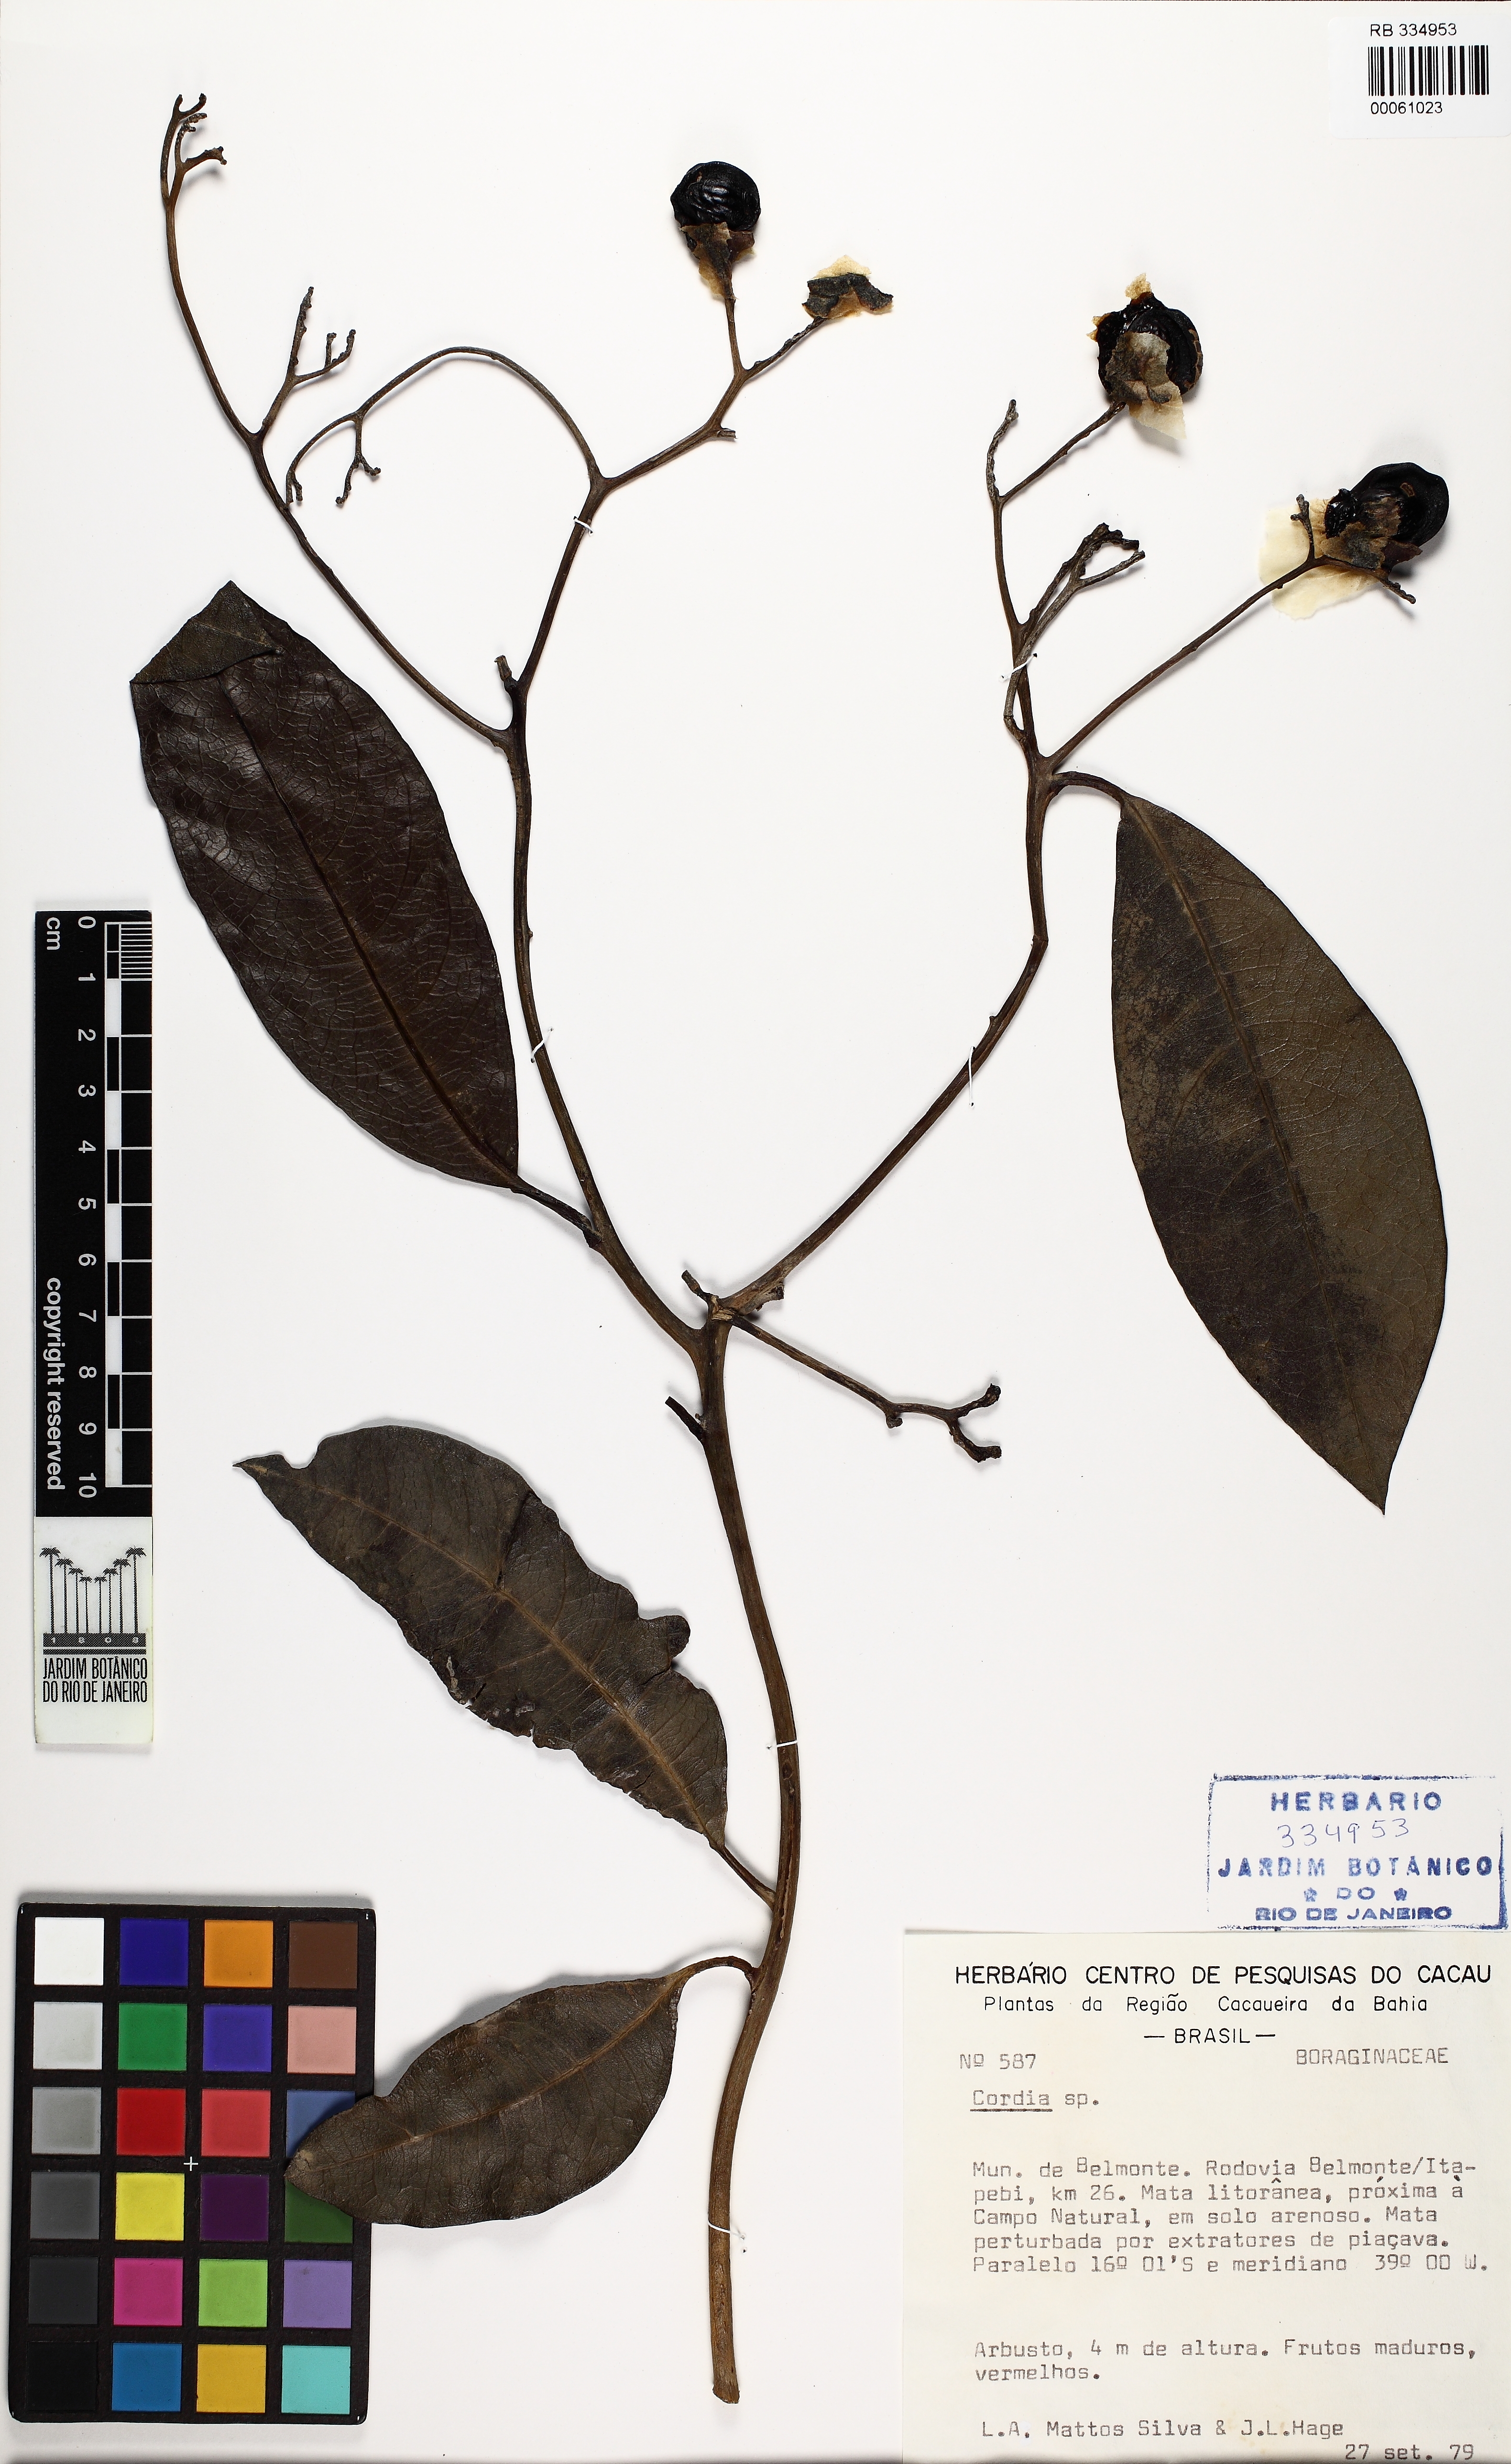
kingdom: Plantae
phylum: Tracheophyta
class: Magnoliopsida
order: Boraginales
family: Cordiaceae
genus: Cordia
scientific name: Cordia
